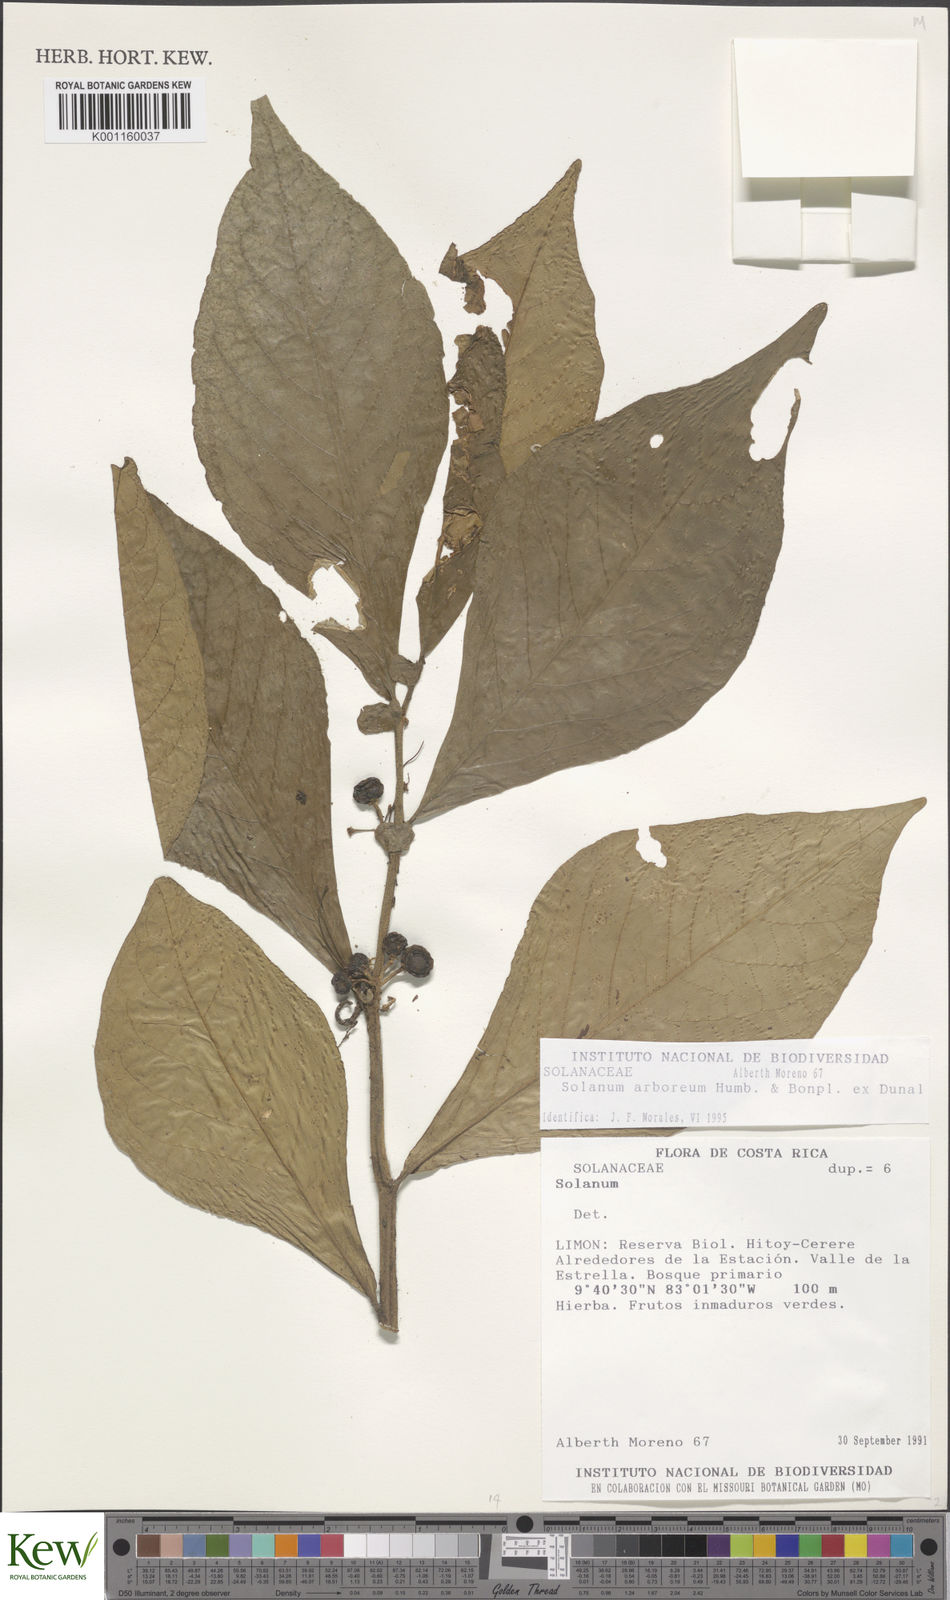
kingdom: Plantae
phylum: Tracheophyta
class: Magnoliopsida
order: Solanales
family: Solanaceae
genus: Solanum
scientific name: Solanum arboreum
